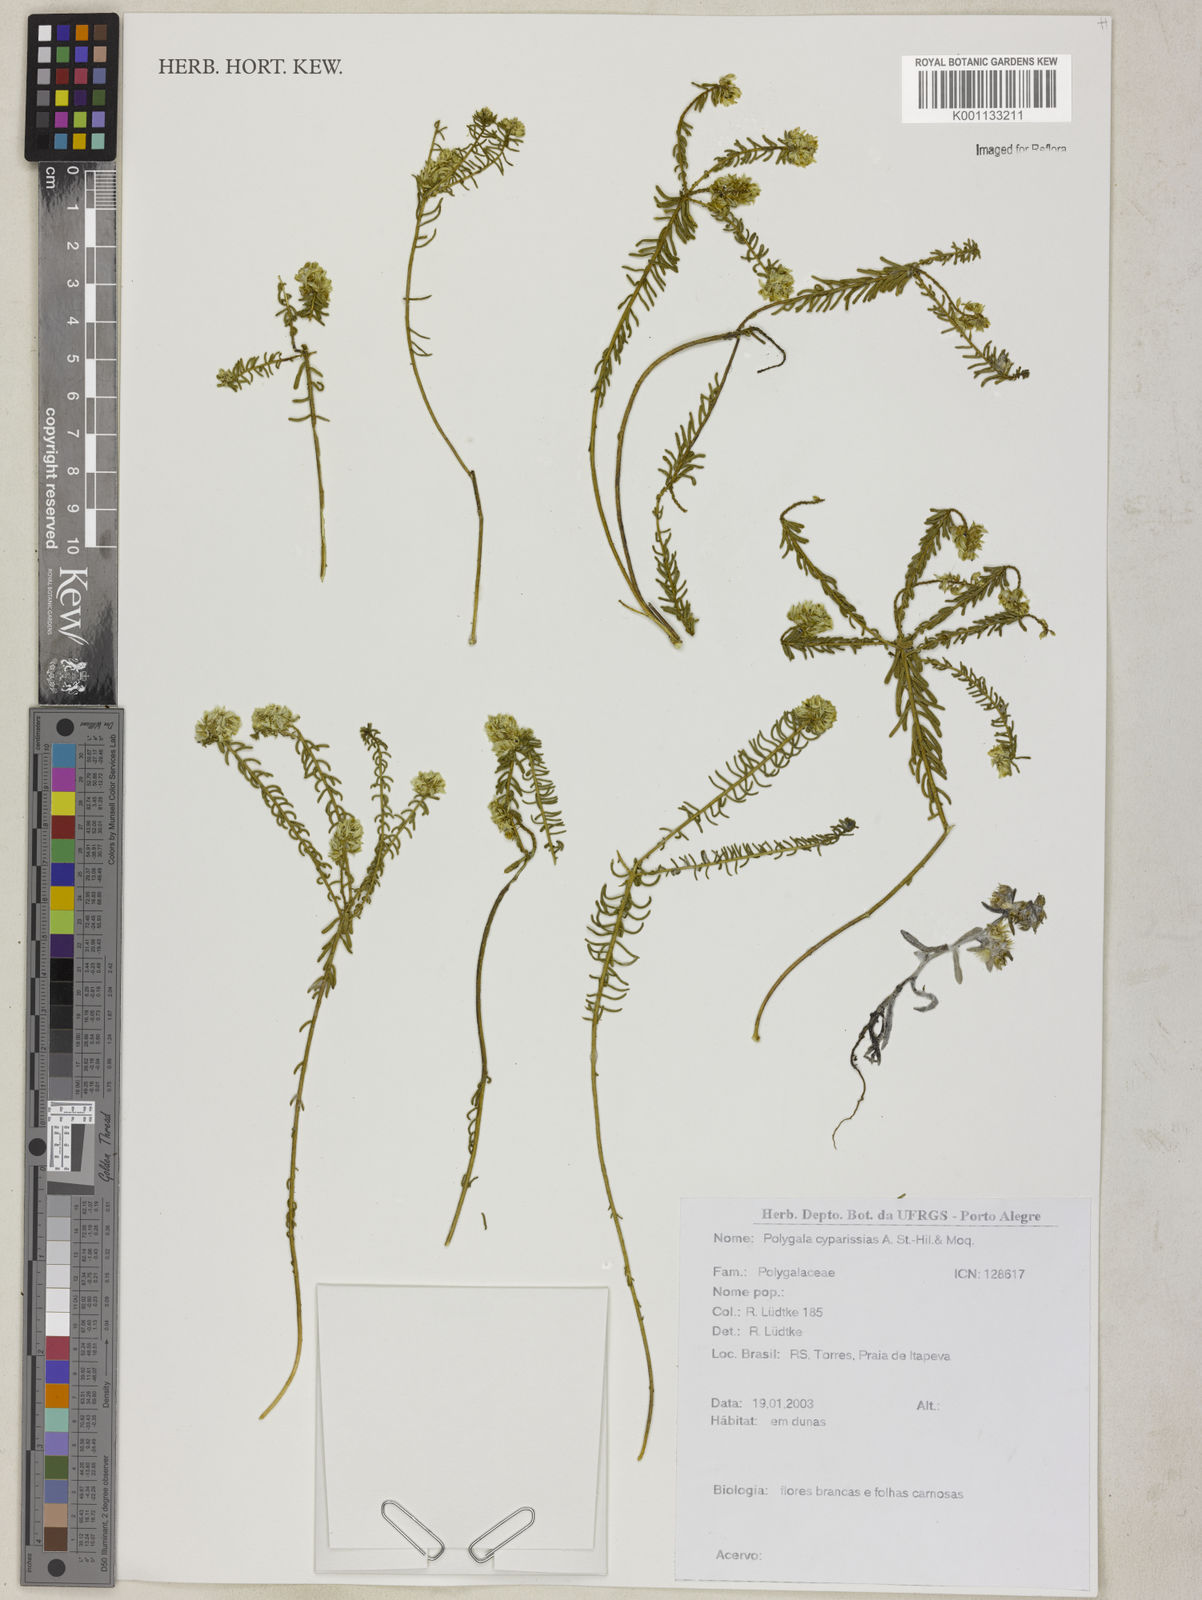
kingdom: Plantae
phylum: Tracheophyta
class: Magnoliopsida
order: Fabales
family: Polygalaceae
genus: Polygala
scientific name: Polygala cyparissias
